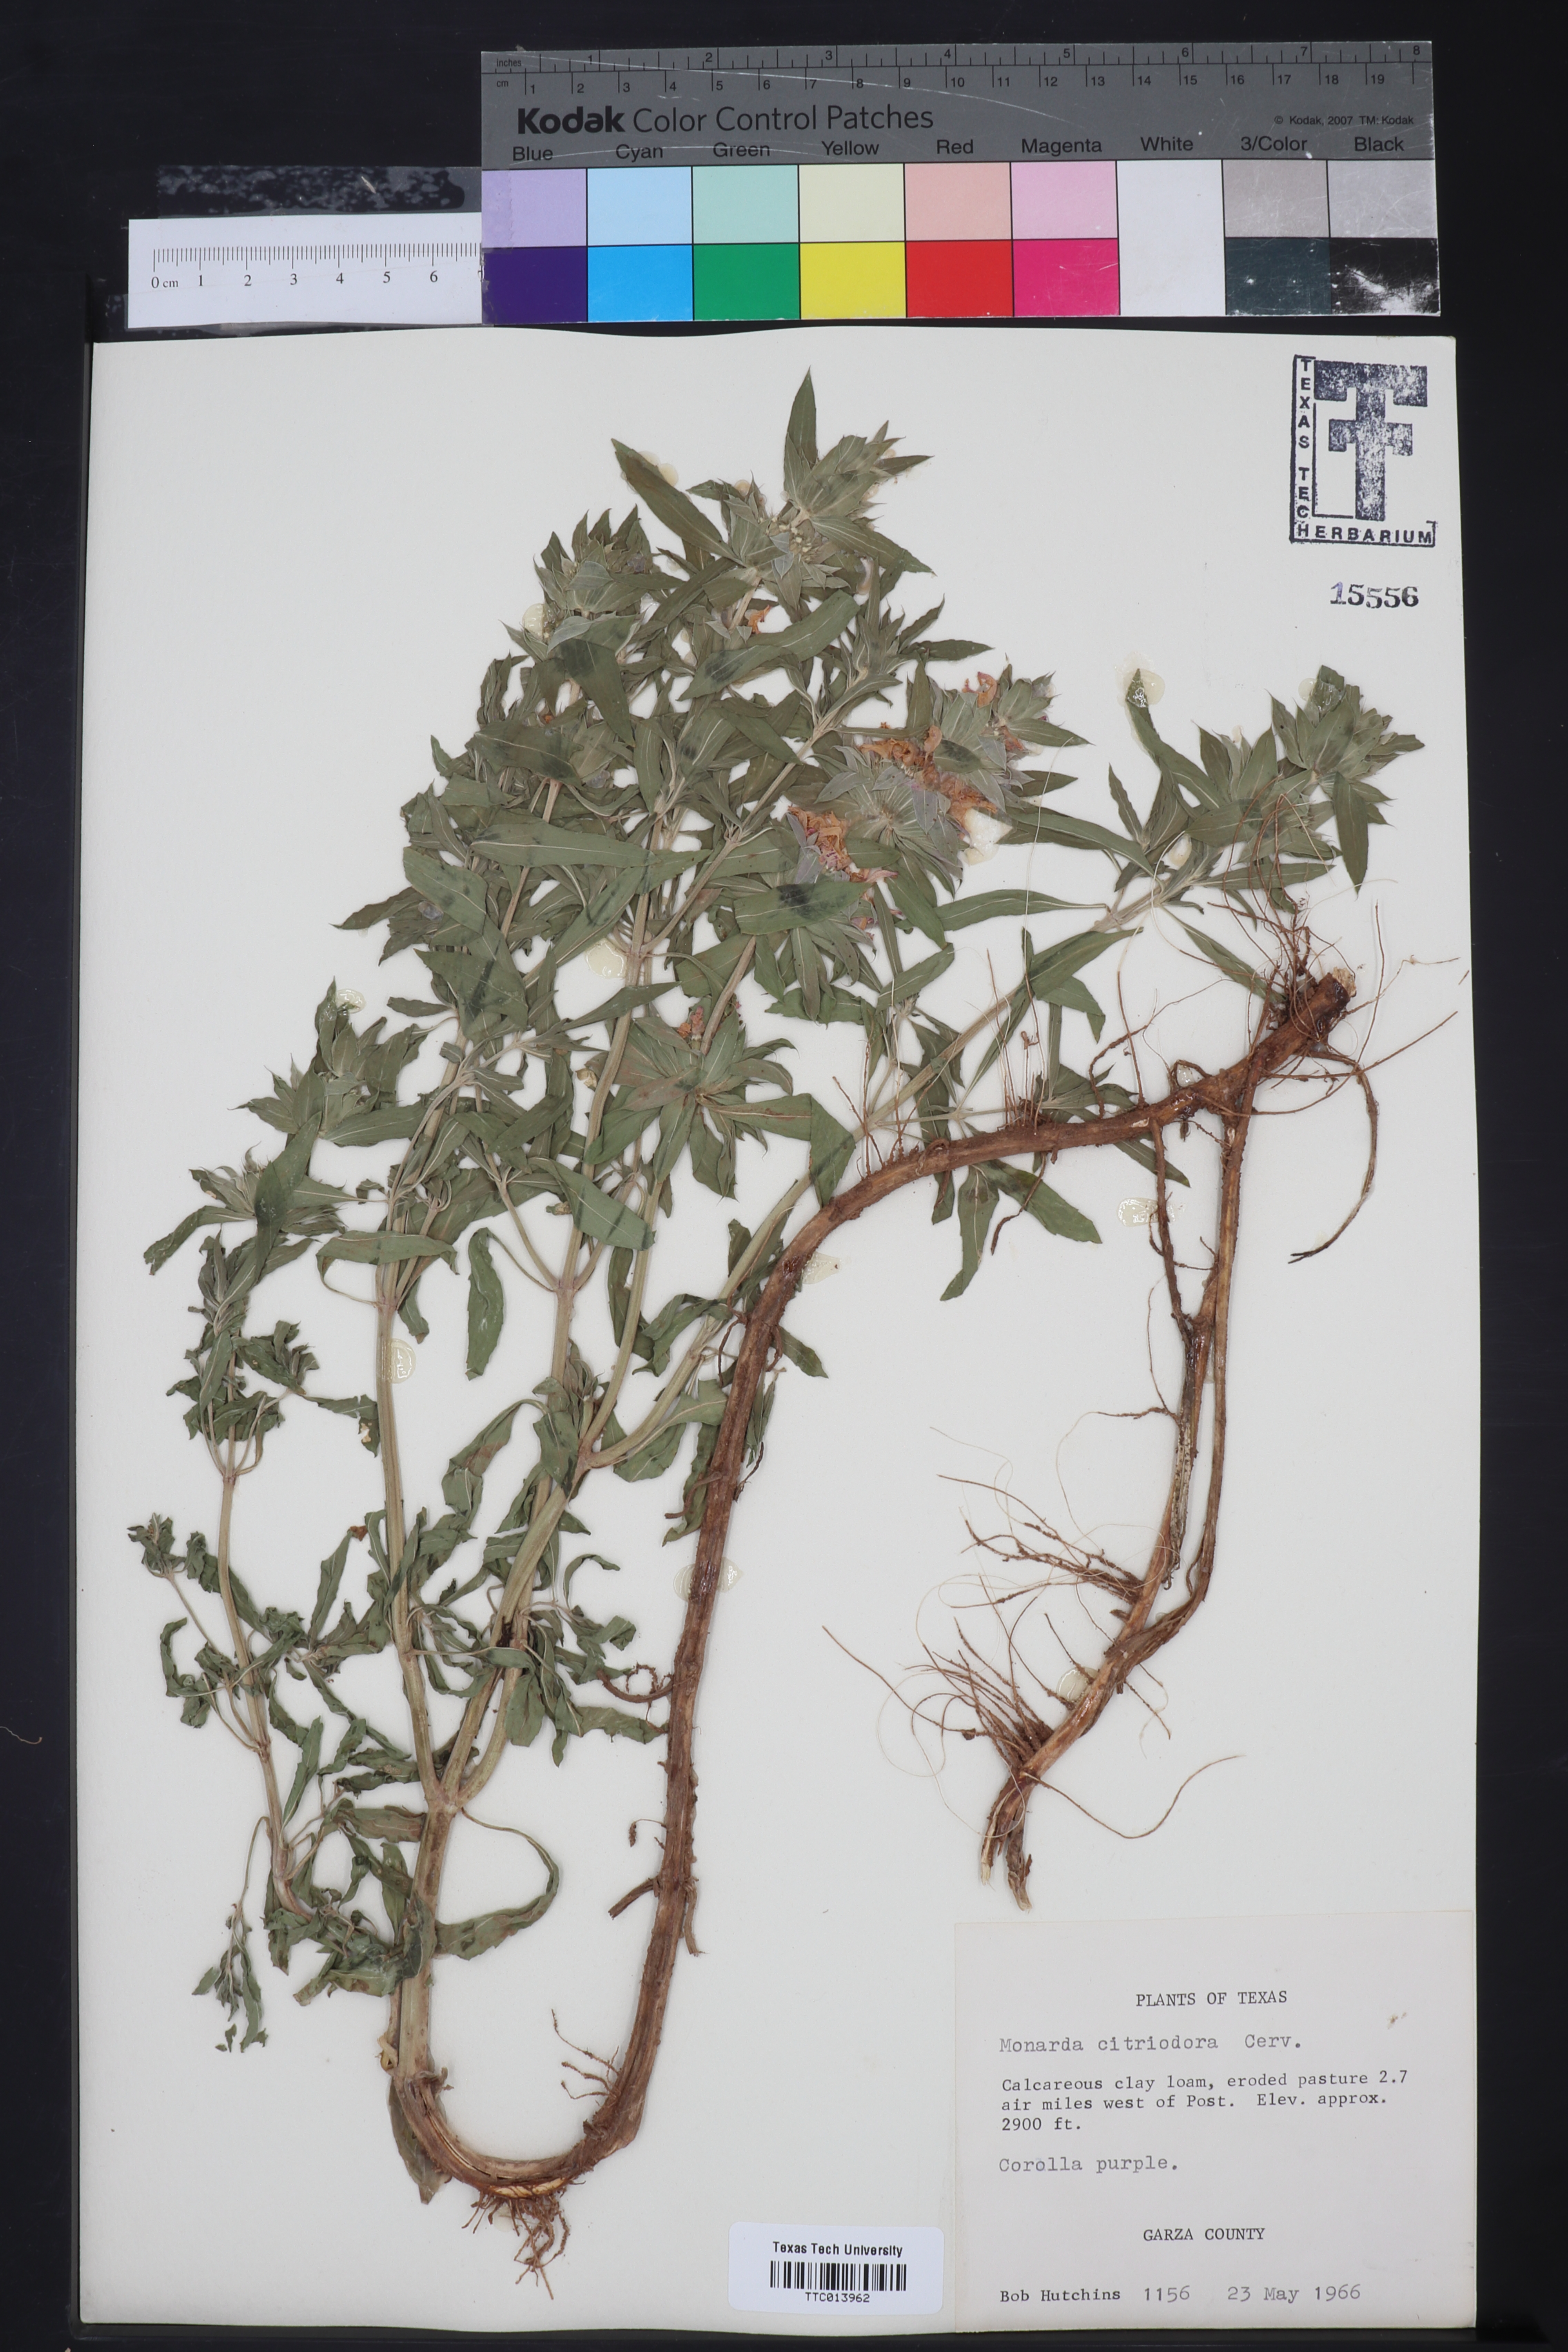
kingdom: Plantae
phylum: Tracheophyta
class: Magnoliopsida
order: Lamiales
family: Lamiaceae
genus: Monarda
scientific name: Monarda citriodora
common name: Lemon beebalm
